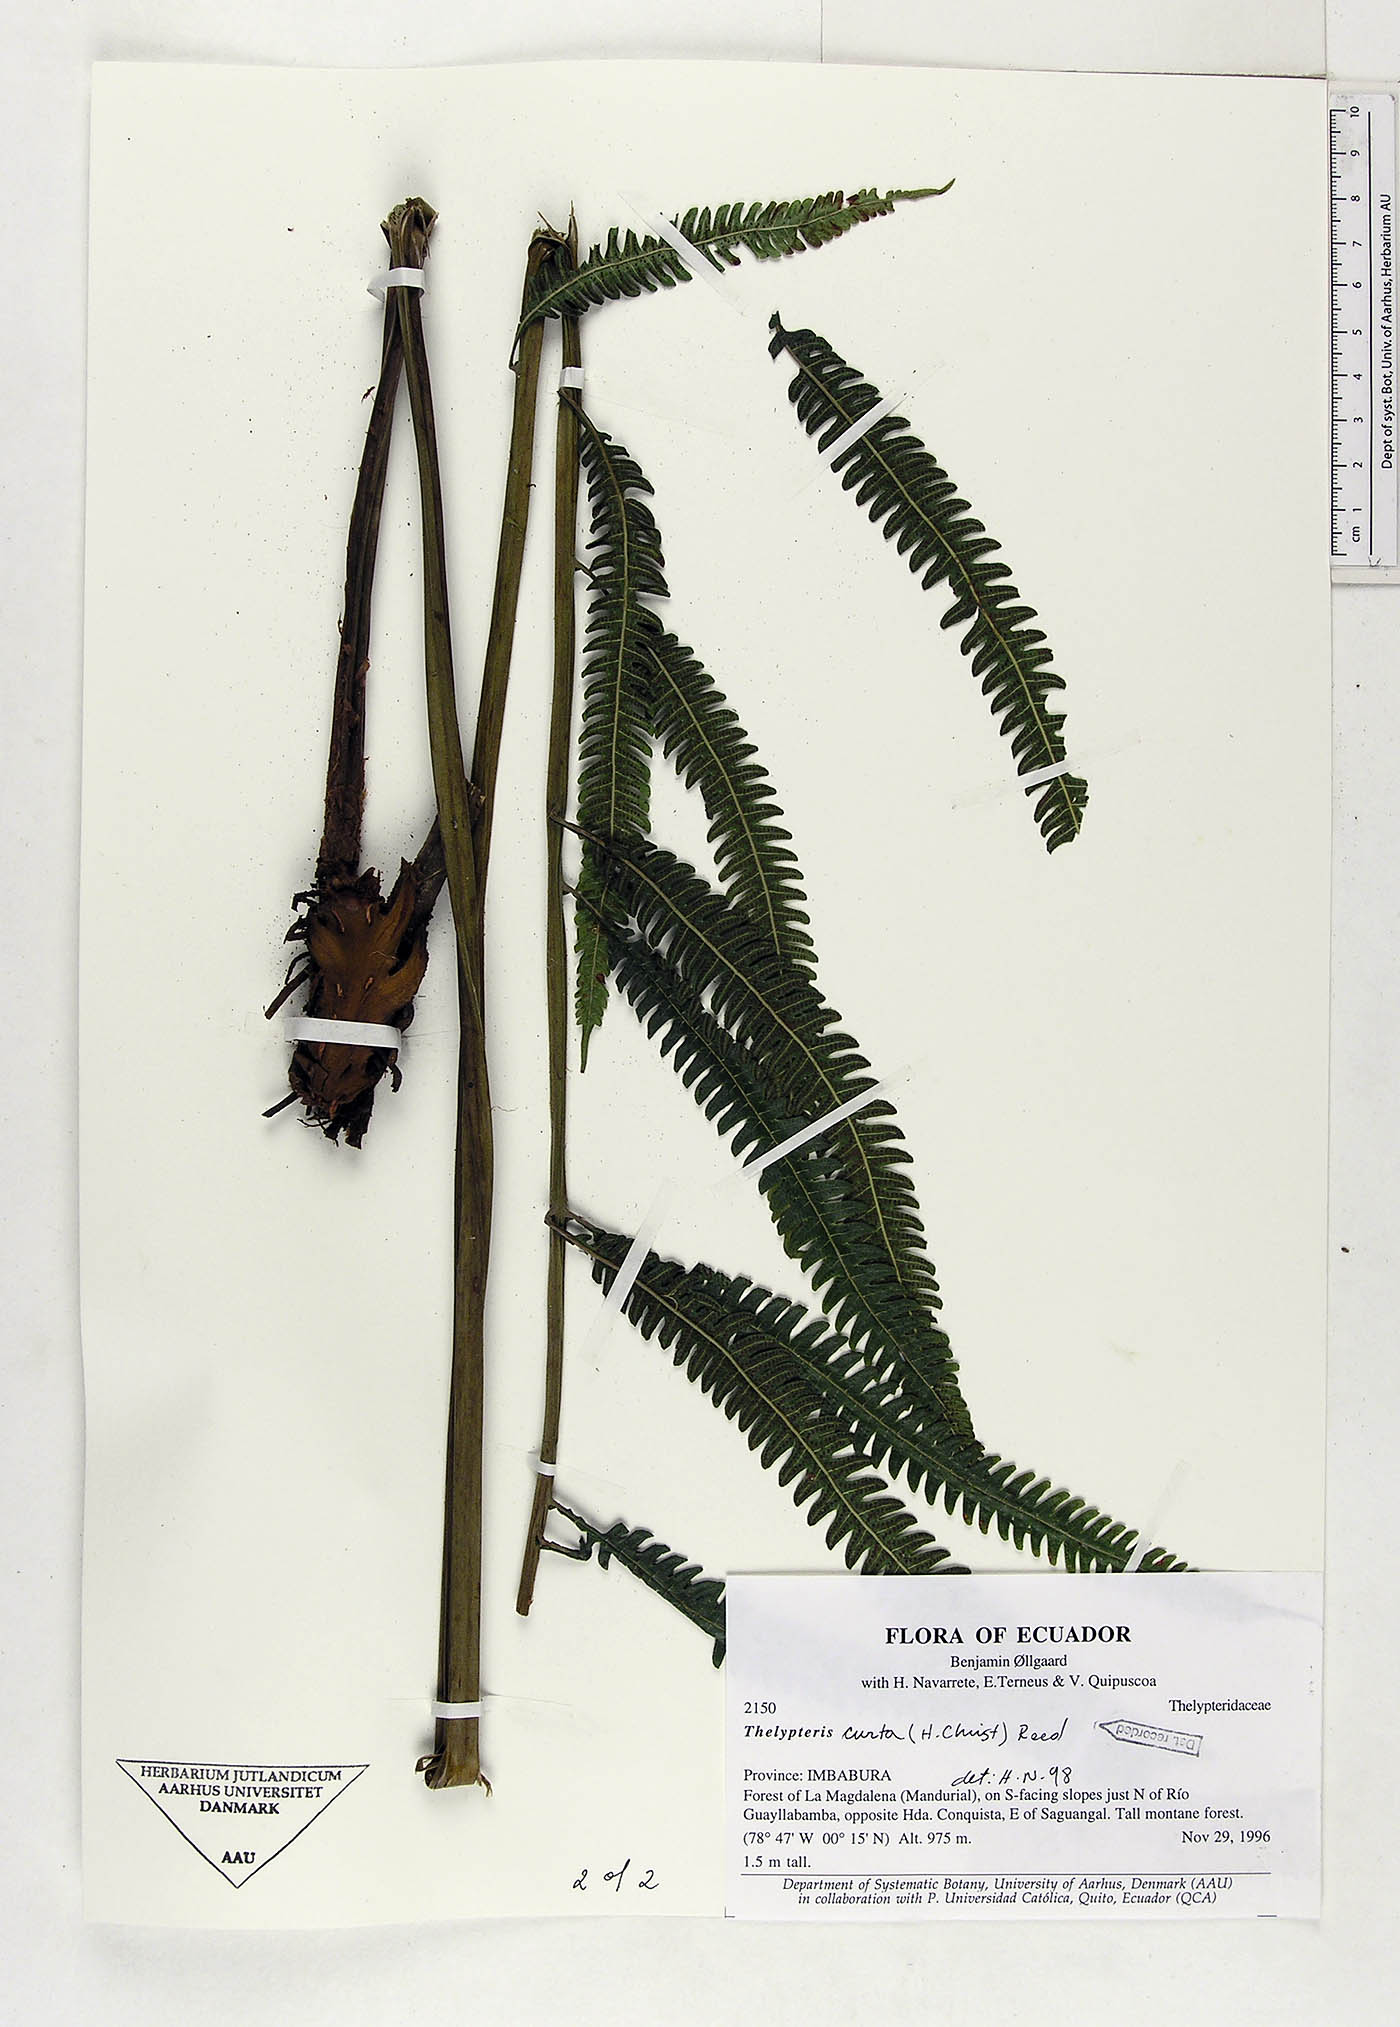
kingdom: Plantae
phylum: Tracheophyta
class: Polypodiopsida
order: Polypodiales
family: Thelypteridaceae
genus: Goniopteris
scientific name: Goniopteris curta
